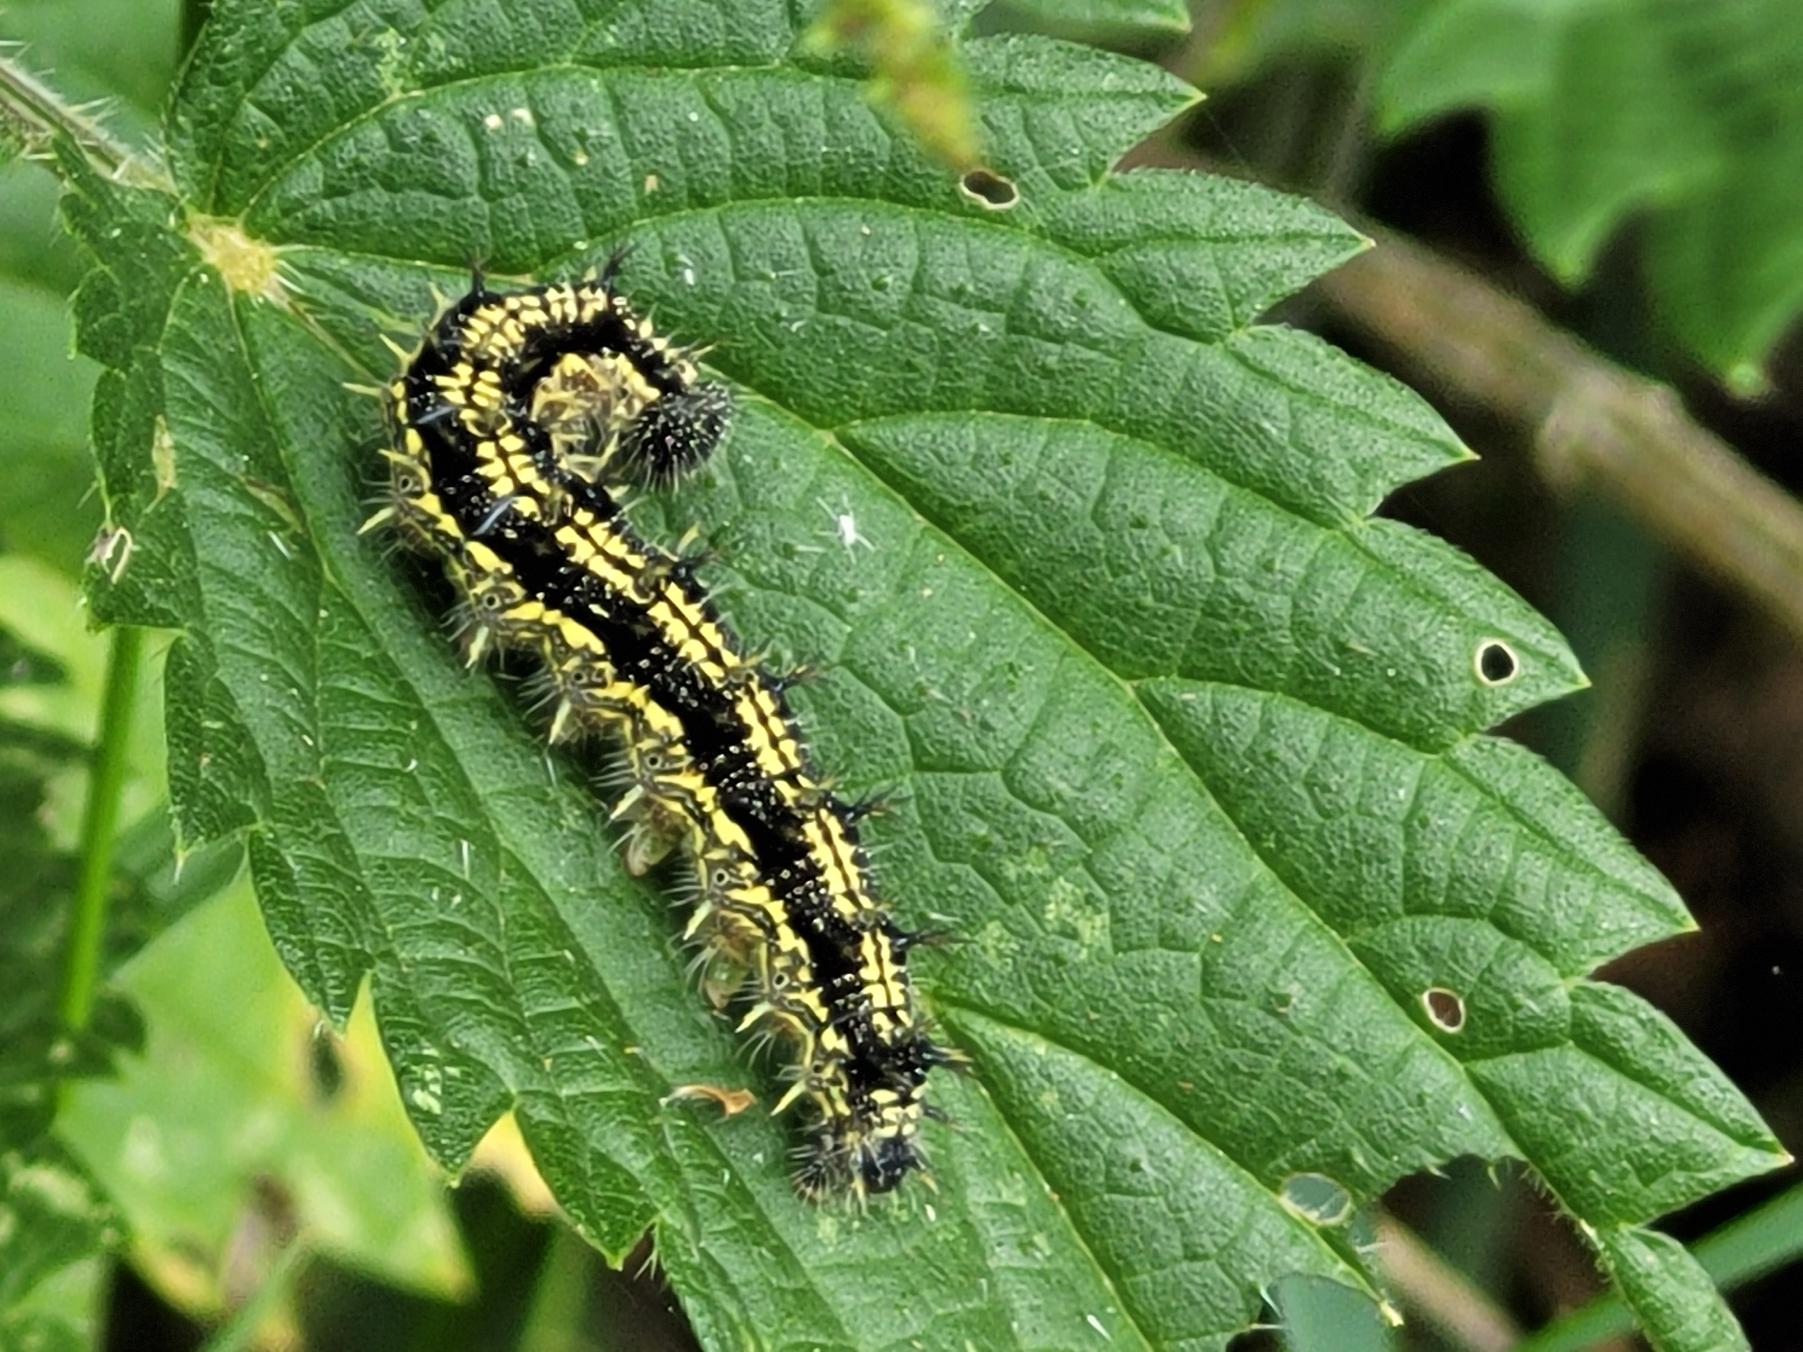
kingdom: Animalia
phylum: Arthropoda
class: Insecta
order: Lepidoptera
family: Nymphalidae
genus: Aglais
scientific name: Aglais urticae
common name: Nældens takvinge
